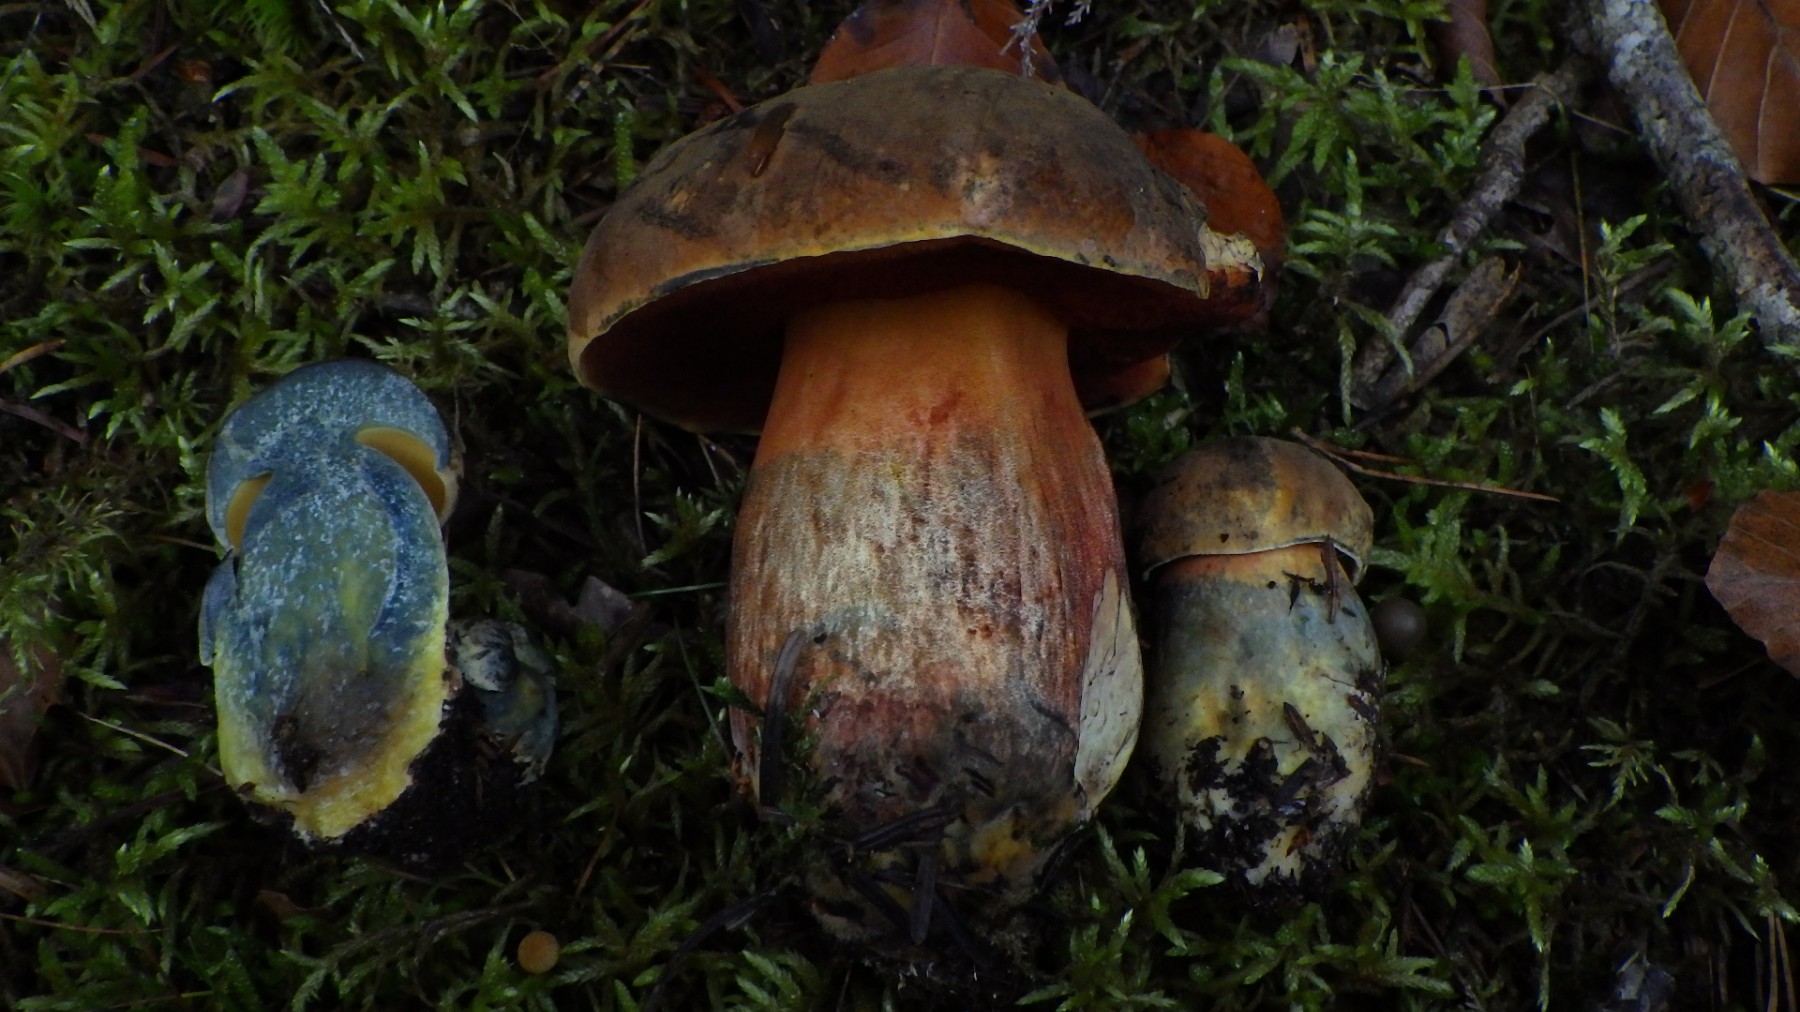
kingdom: Fungi
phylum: Basidiomycota
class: Agaricomycetes
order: Boletales
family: Boletaceae
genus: Neoboletus
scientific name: Neoboletus erythropus
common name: punktstokket indigorørhat
